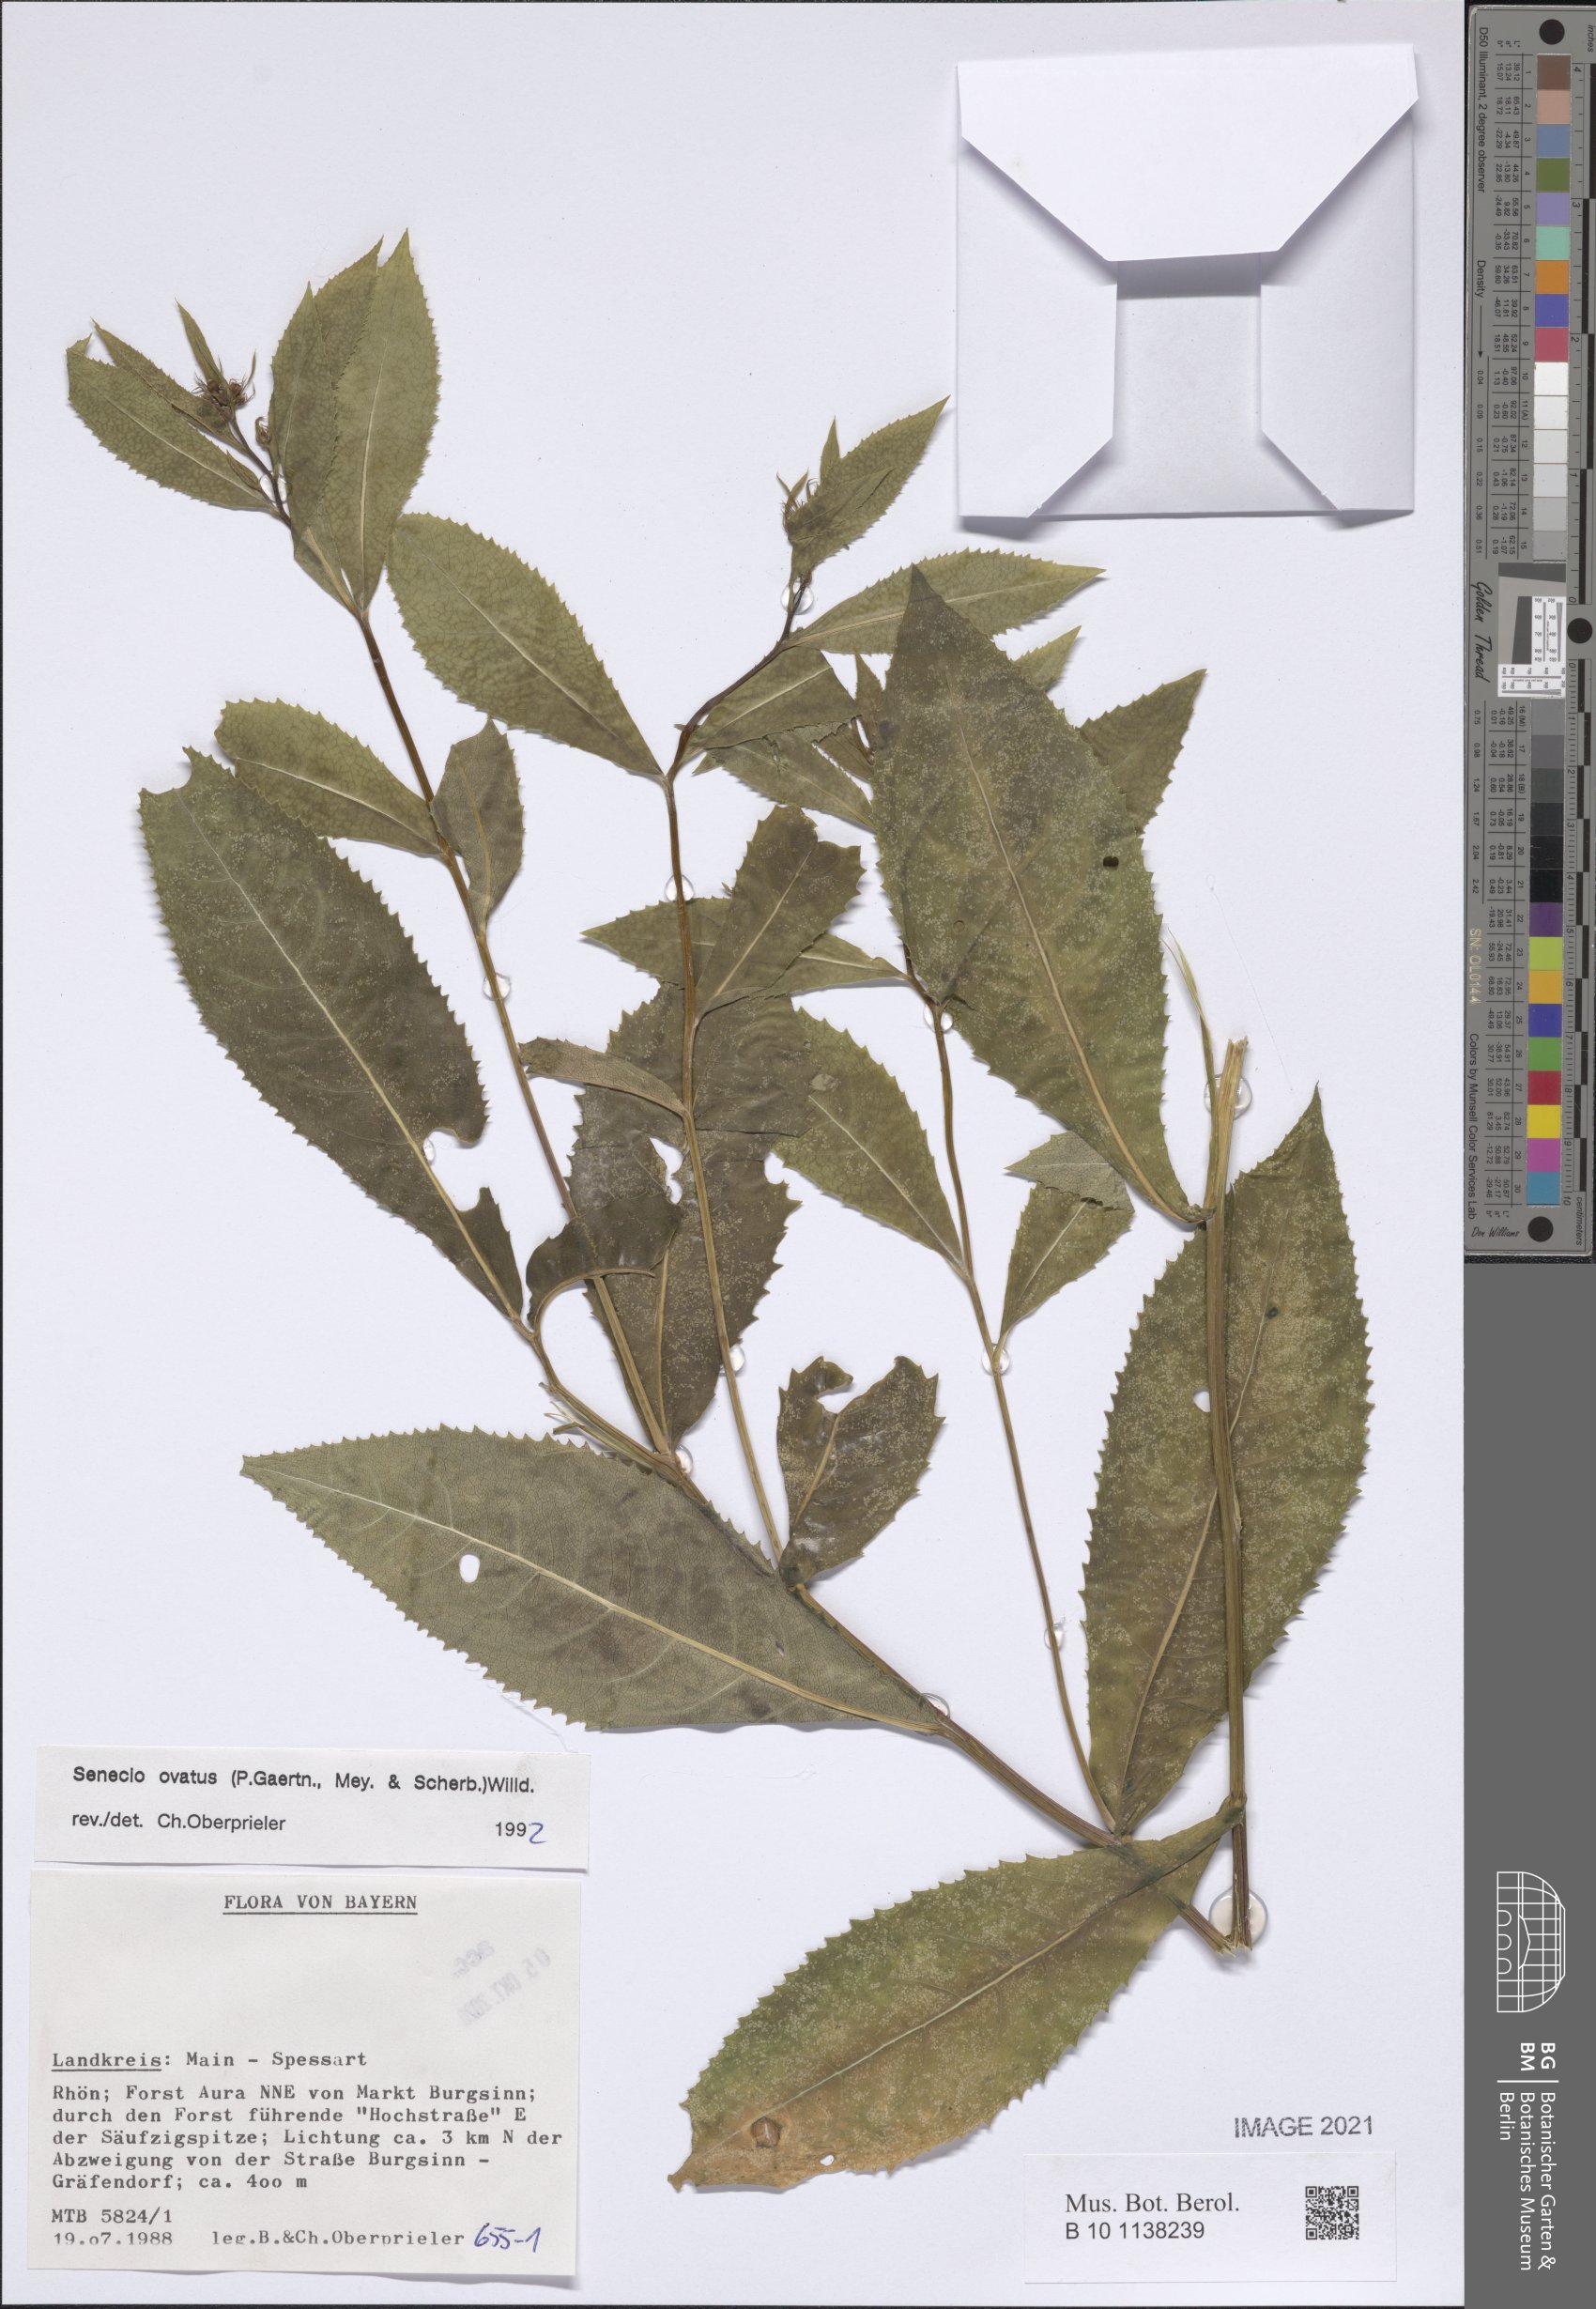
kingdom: Plantae
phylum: Tracheophyta
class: Magnoliopsida
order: Asterales
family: Asteraceae
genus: Senecio
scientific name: Senecio ovatus
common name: Wood ragwort
